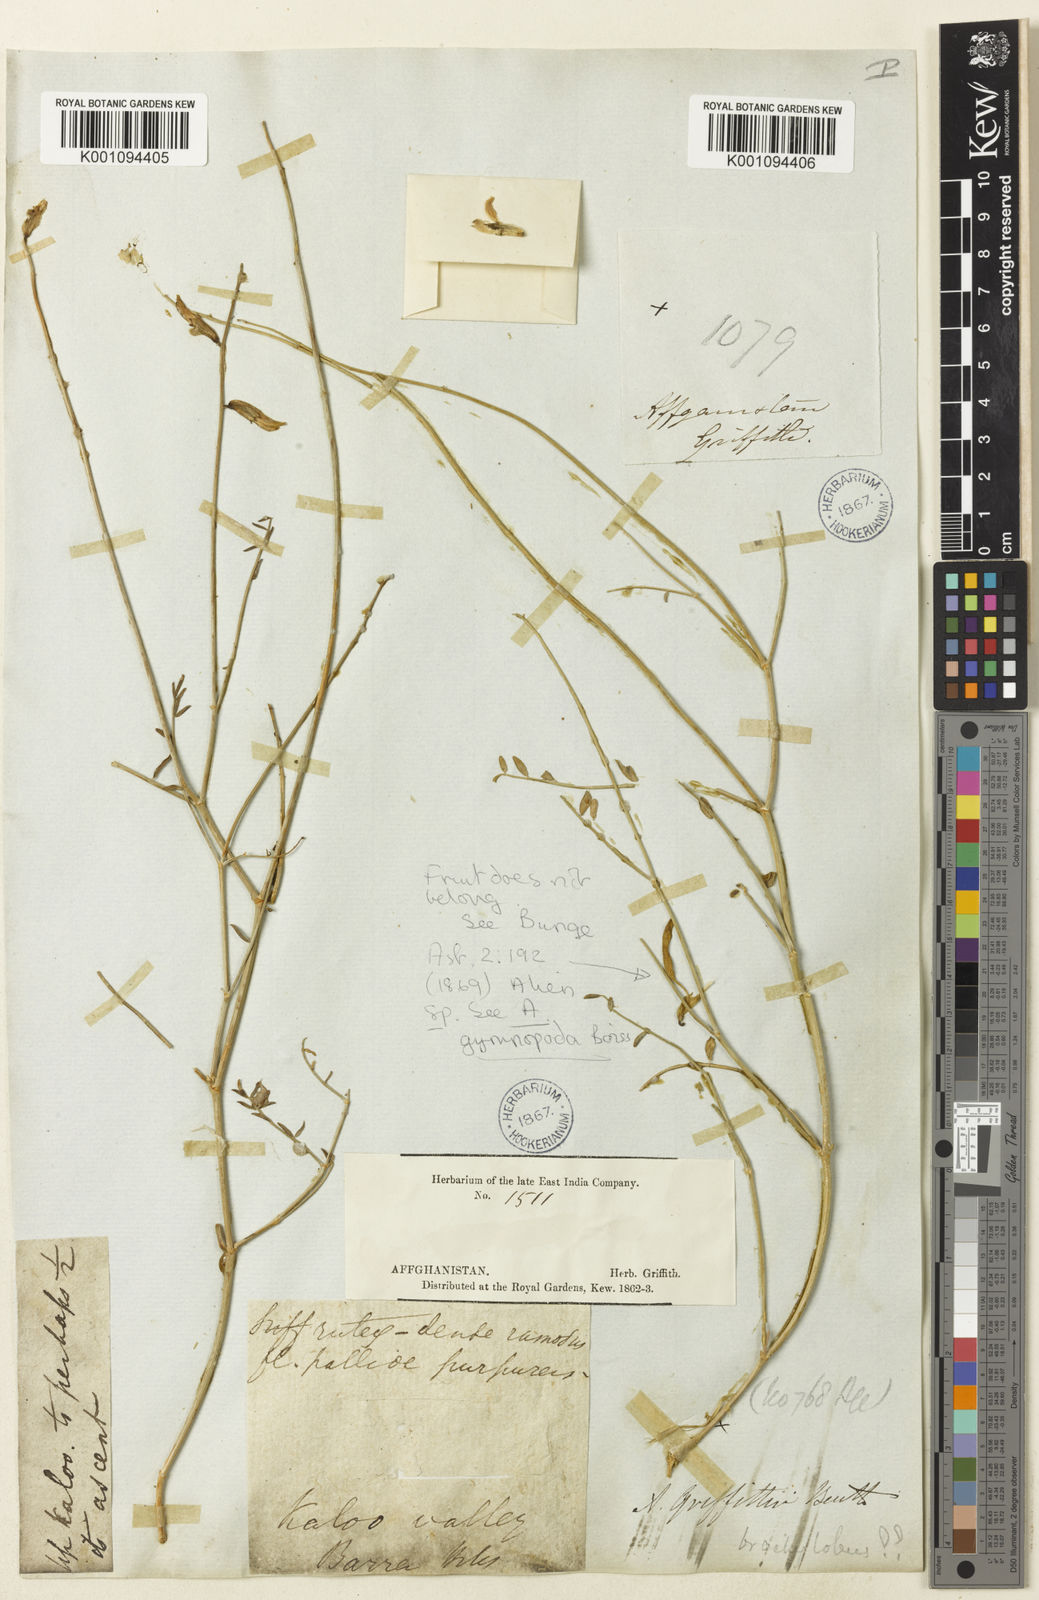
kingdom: Plantae
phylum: Tracheophyta
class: Magnoliopsida
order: Fabales
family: Fabaceae
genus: Astragalus
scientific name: Astragalus
